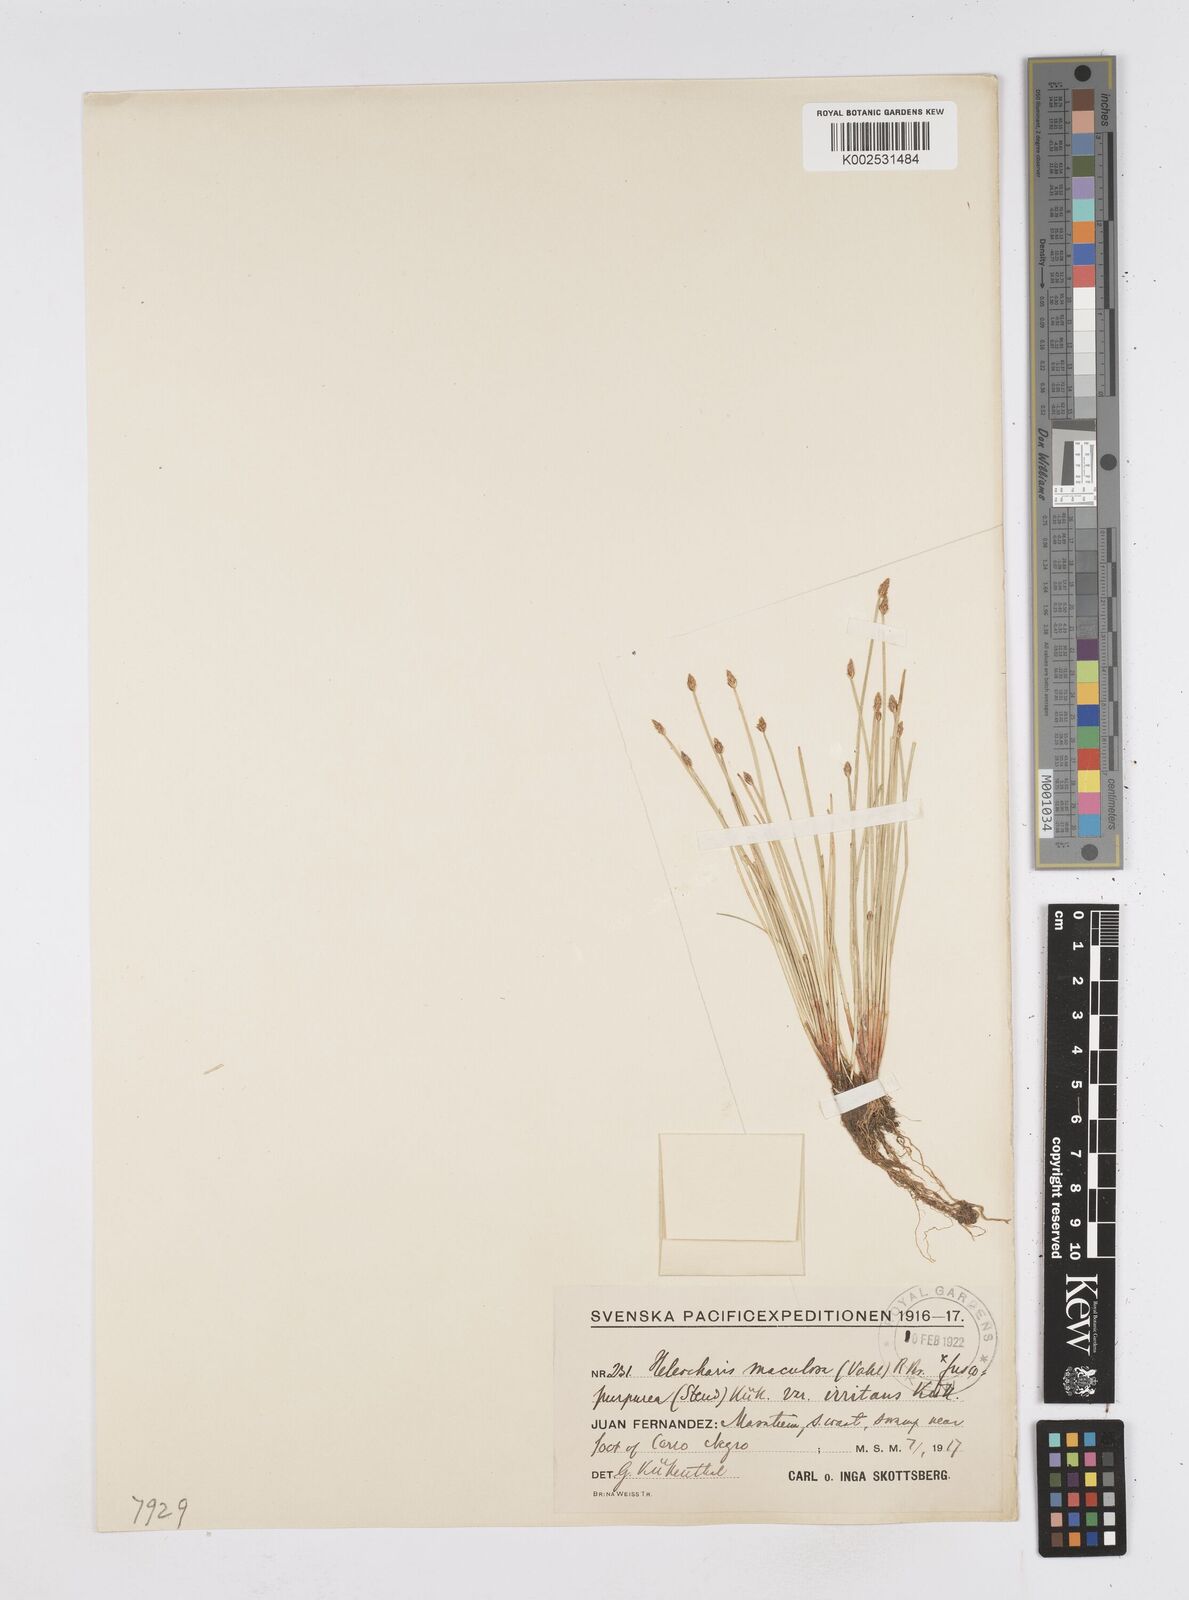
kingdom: Plantae
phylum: Tracheophyta
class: Liliopsida
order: Poales
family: Cyperaceae
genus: Eleocharis
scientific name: Eleocharis maculosa
